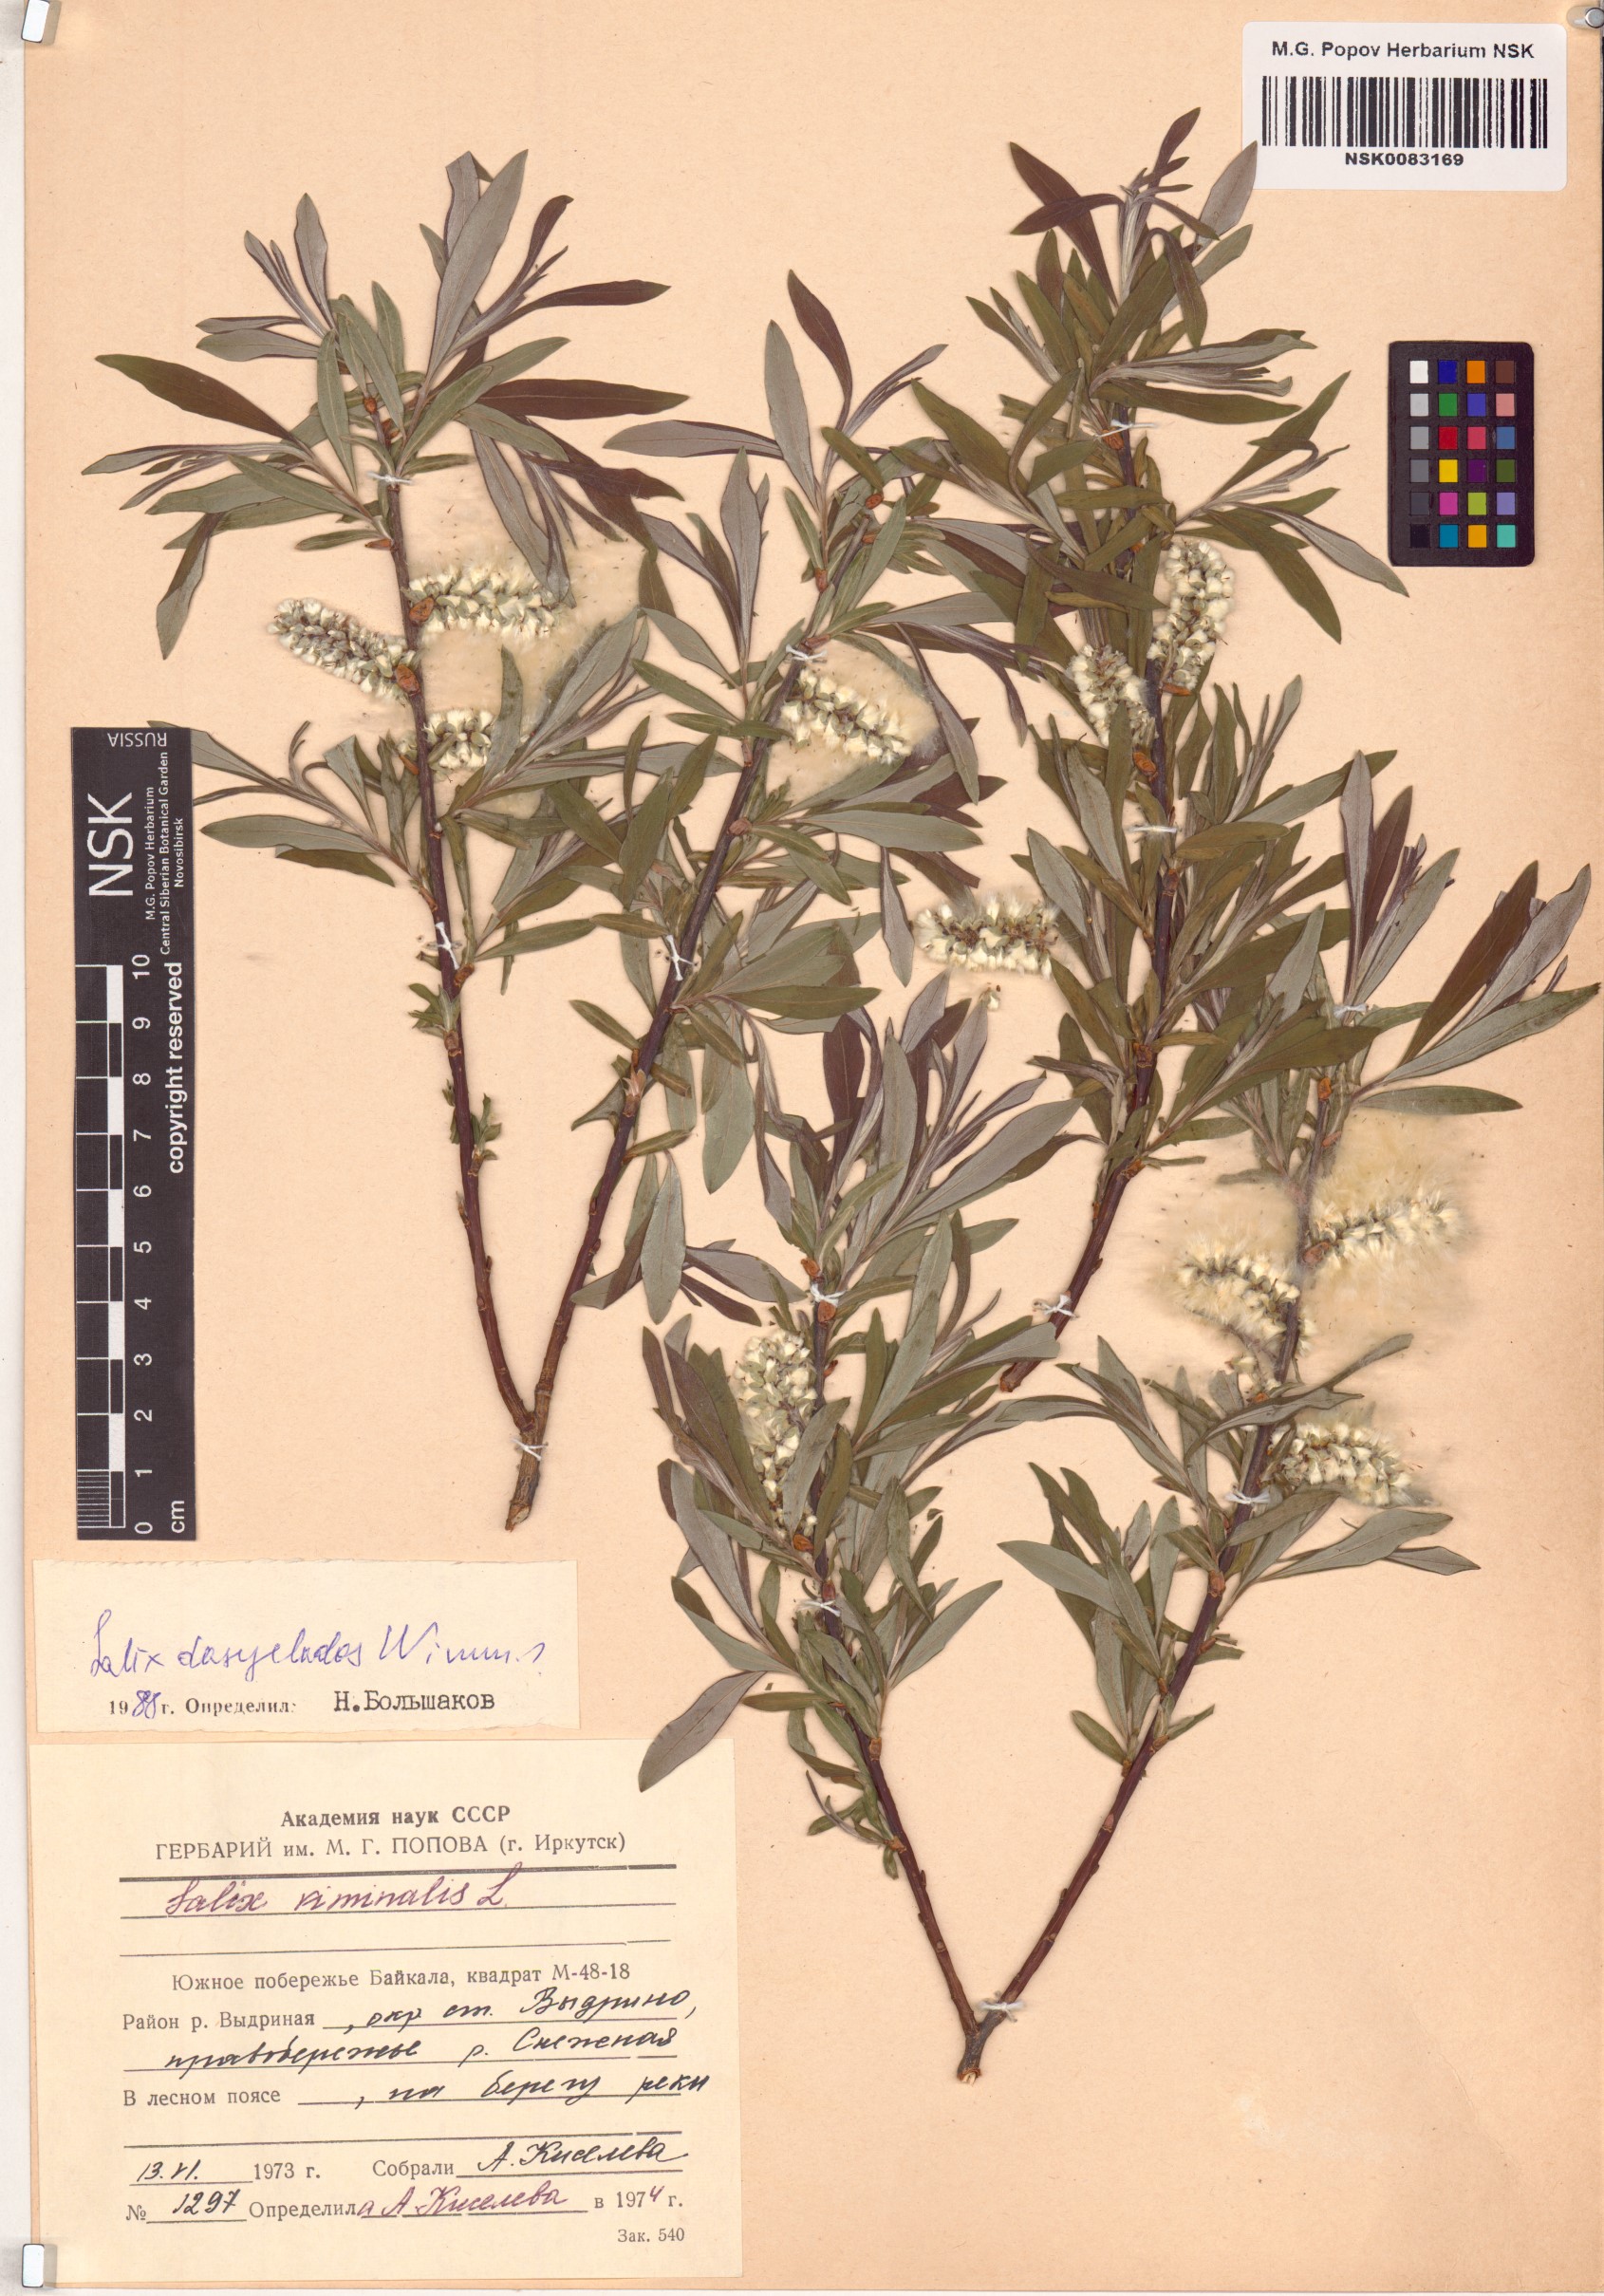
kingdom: Plantae
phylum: Tracheophyta
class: Magnoliopsida
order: Malpighiales
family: Salicaceae
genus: Salix
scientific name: Salix gmelinii
